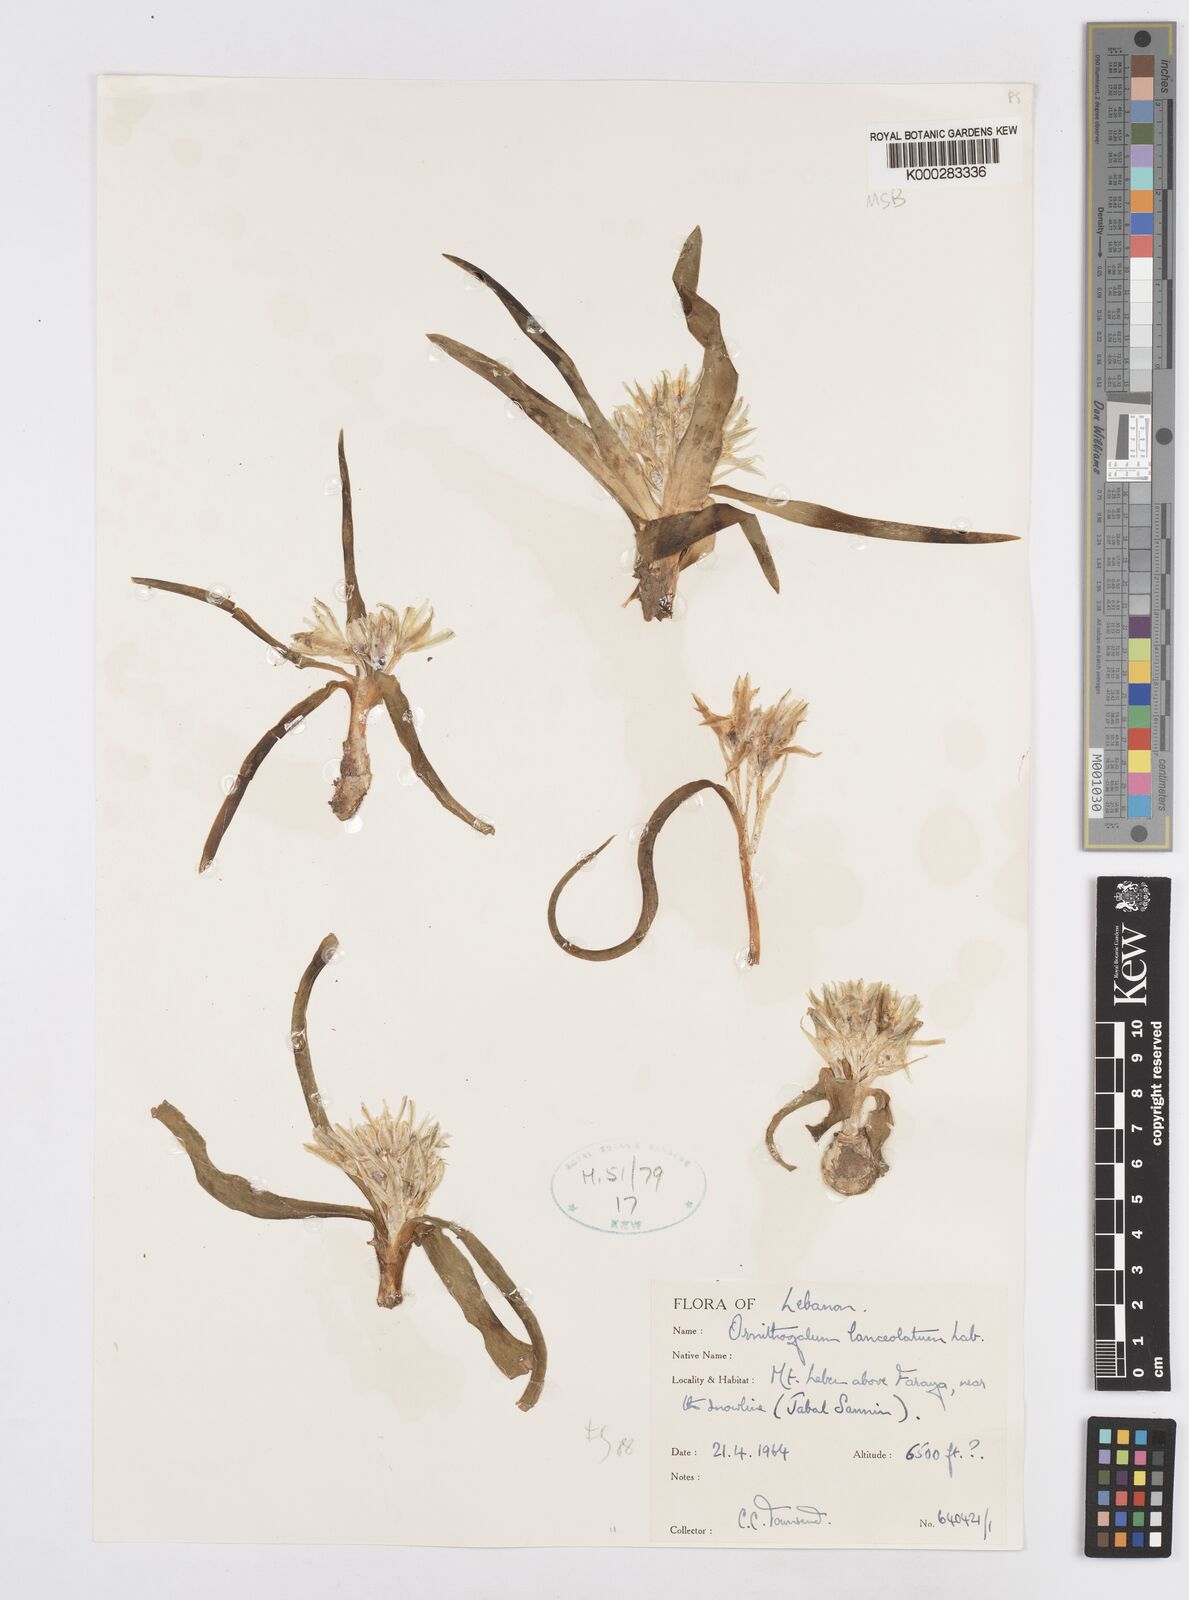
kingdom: Plantae
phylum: Tracheophyta
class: Liliopsida
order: Asparagales
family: Asparagaceae
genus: Ornithogalum
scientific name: Ornithogalum lanceolatum
